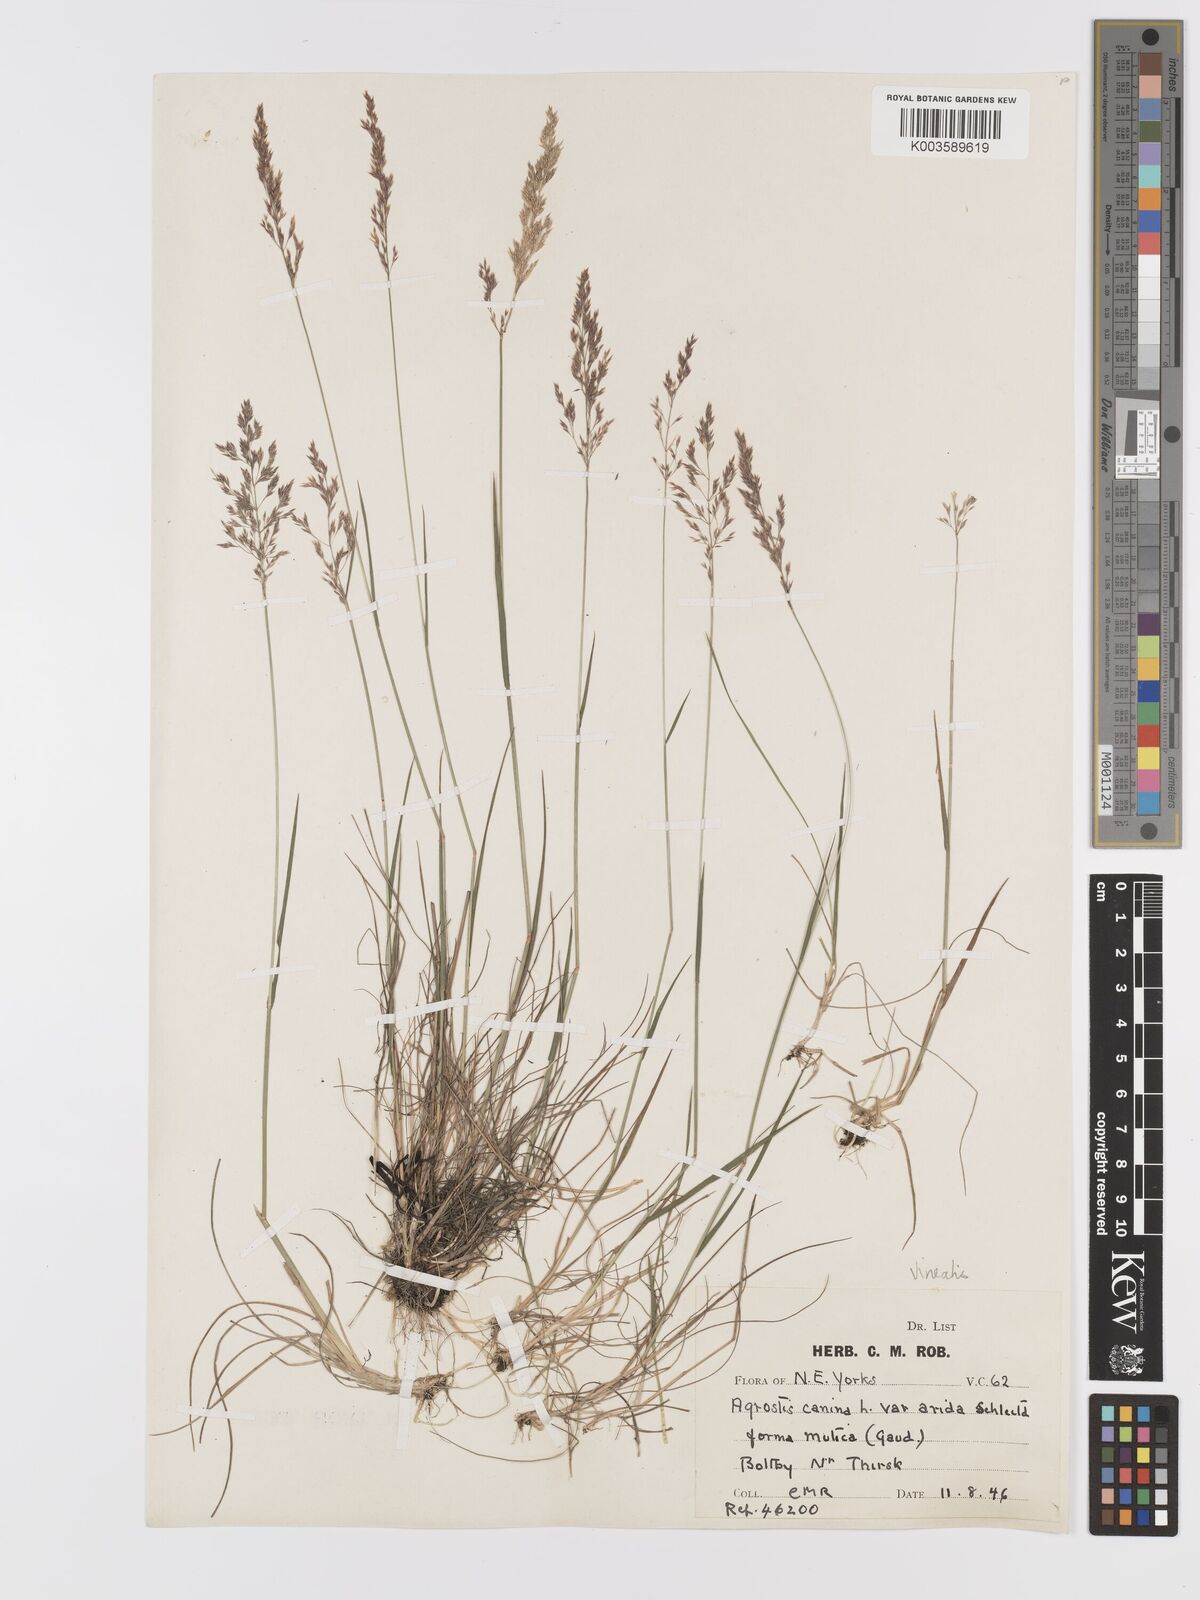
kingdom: Plantae
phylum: Tracheophyta
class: Liliopsida
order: Poales
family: Poaceae
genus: Agrostis
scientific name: Agrostis
